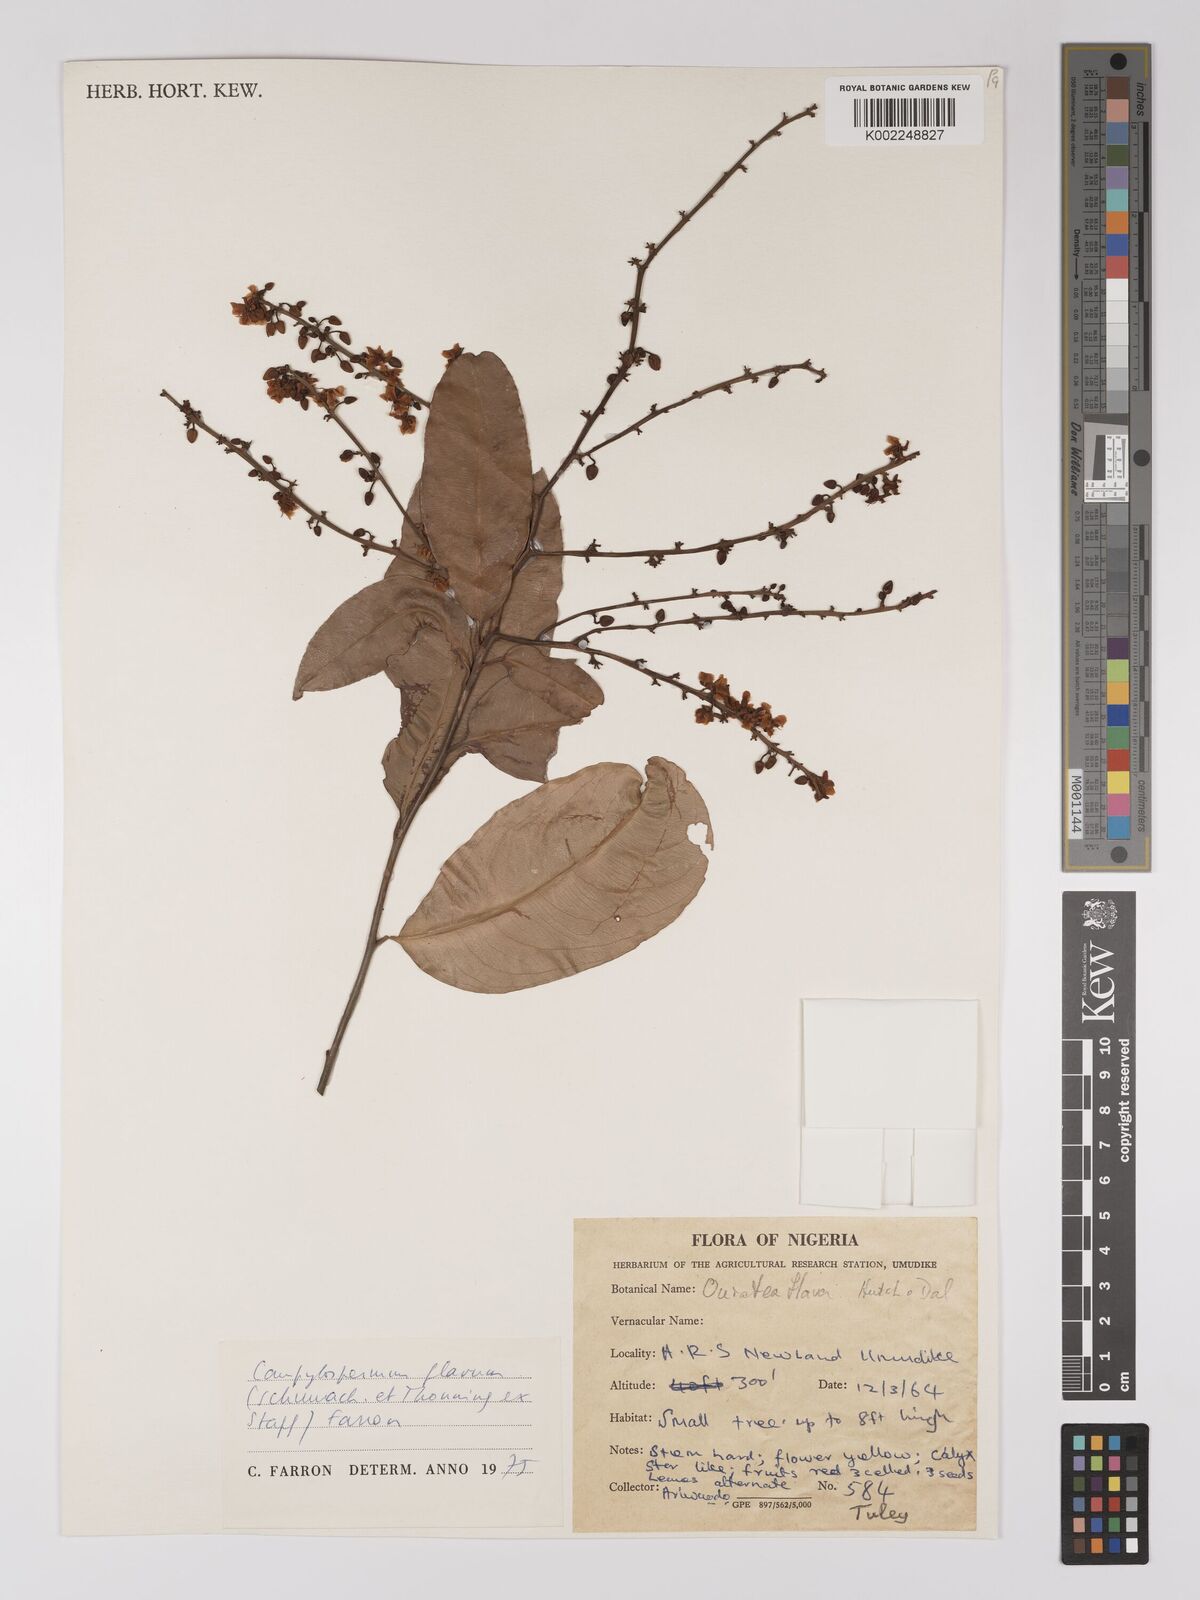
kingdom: Plantae
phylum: Tracheophyta
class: Magnoliopsida
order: Malpighiales
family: Ochnaceae
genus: Campylospermum
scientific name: Campylospermum flavum
